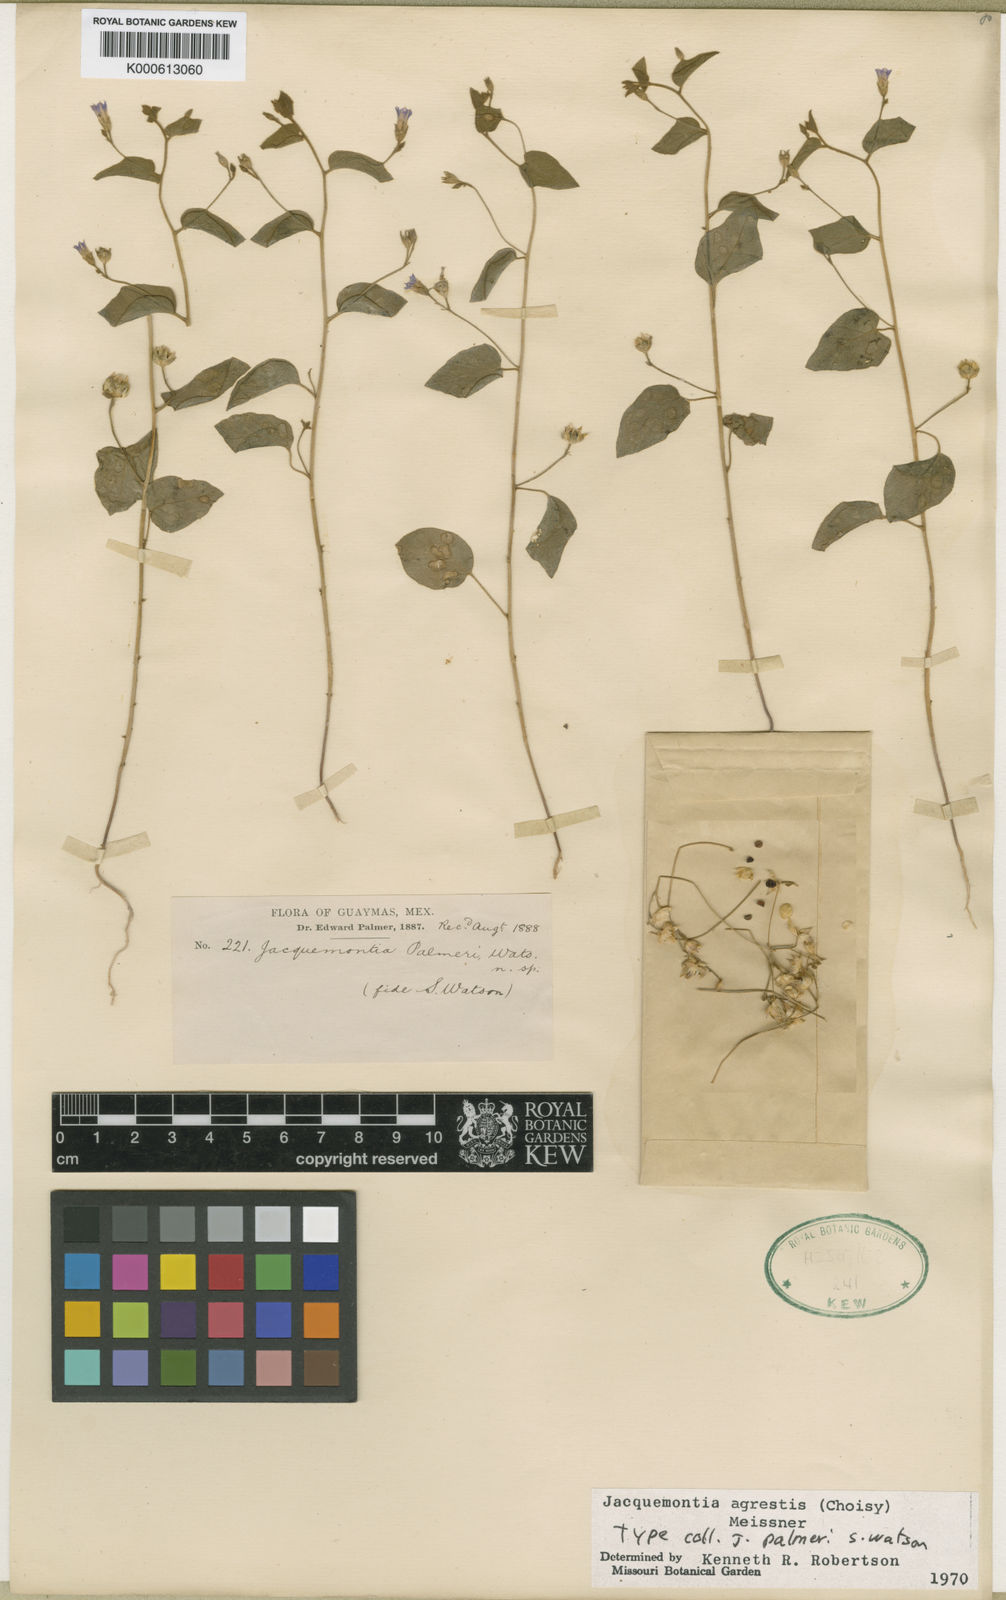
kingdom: Plantae
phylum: Tracheophyta
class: Magnoliopsida
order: Solanales
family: Convolvulaceae
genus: Jacquemontia
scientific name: Jacquemontia agrestis
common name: Midnightblue clustervine
